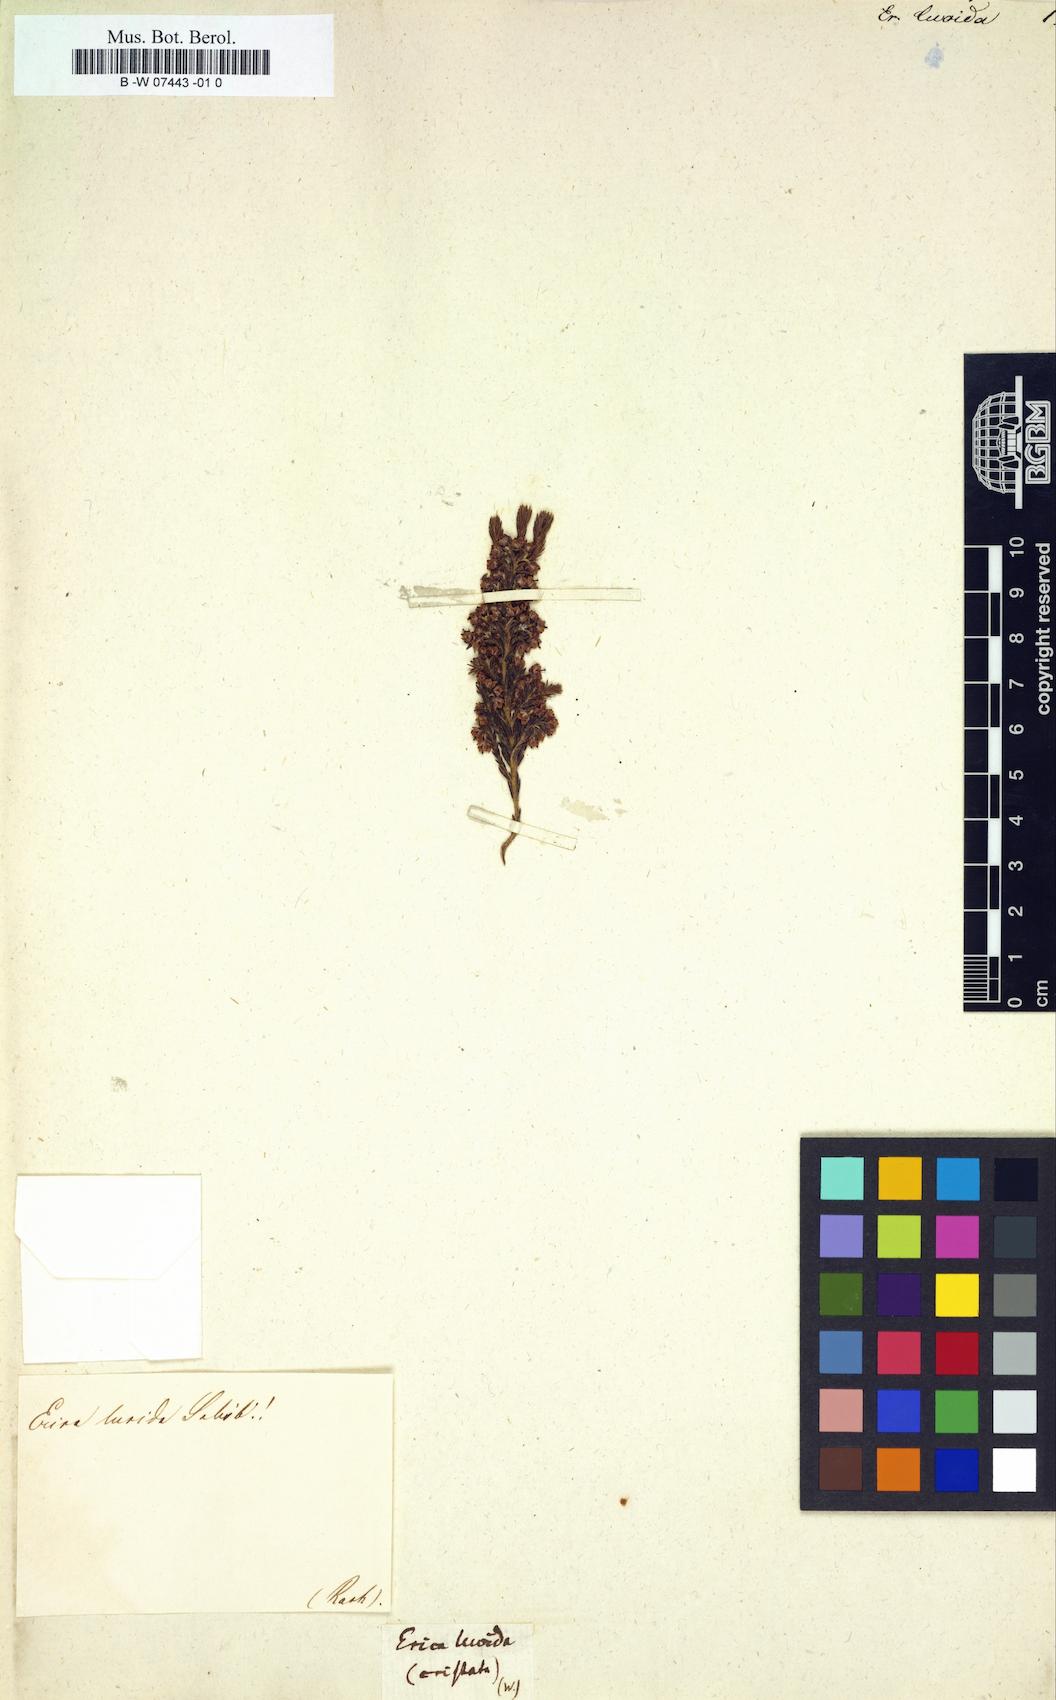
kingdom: Plantae
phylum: Tracheophyta
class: Magnoliopsida
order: Ericales
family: Ericaceae
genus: Erica
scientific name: Erica lucida
